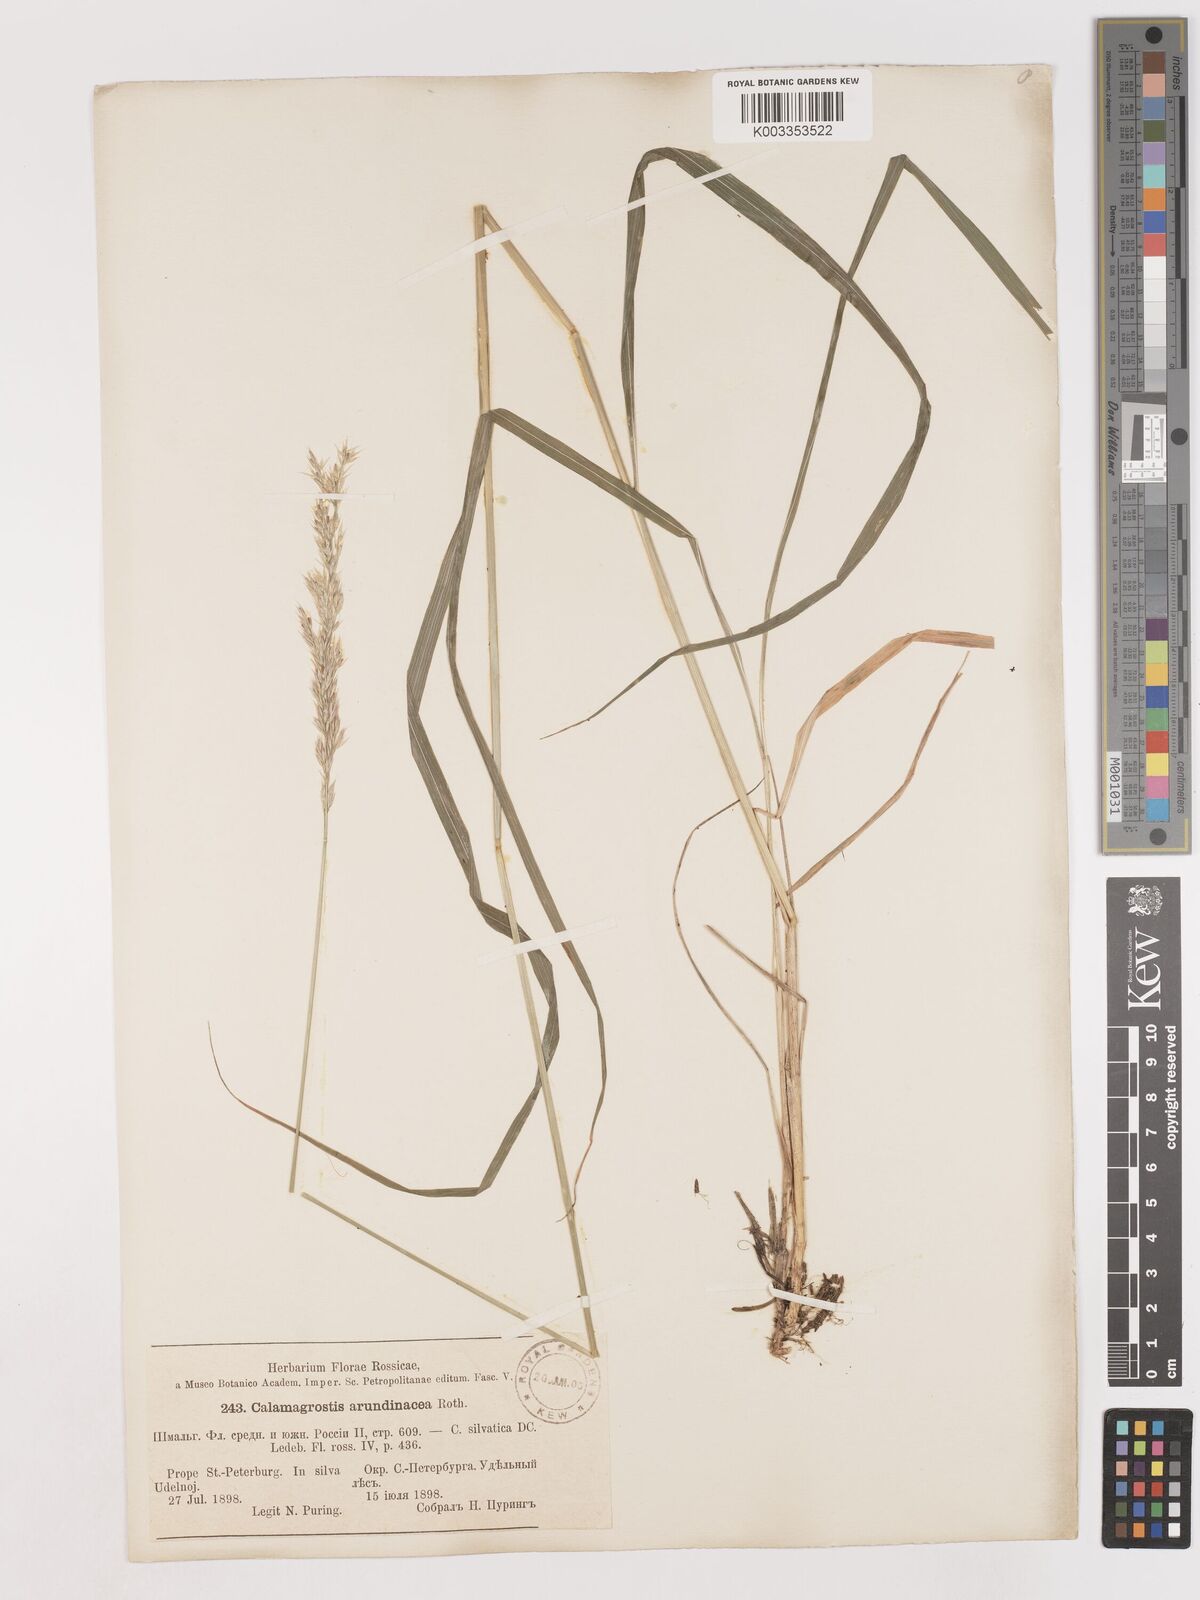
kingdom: Plantae
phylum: Tracheophyta
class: Liliopsida
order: Poales
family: Poaceae
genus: Calamagrostis
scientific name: Calamagrostis
